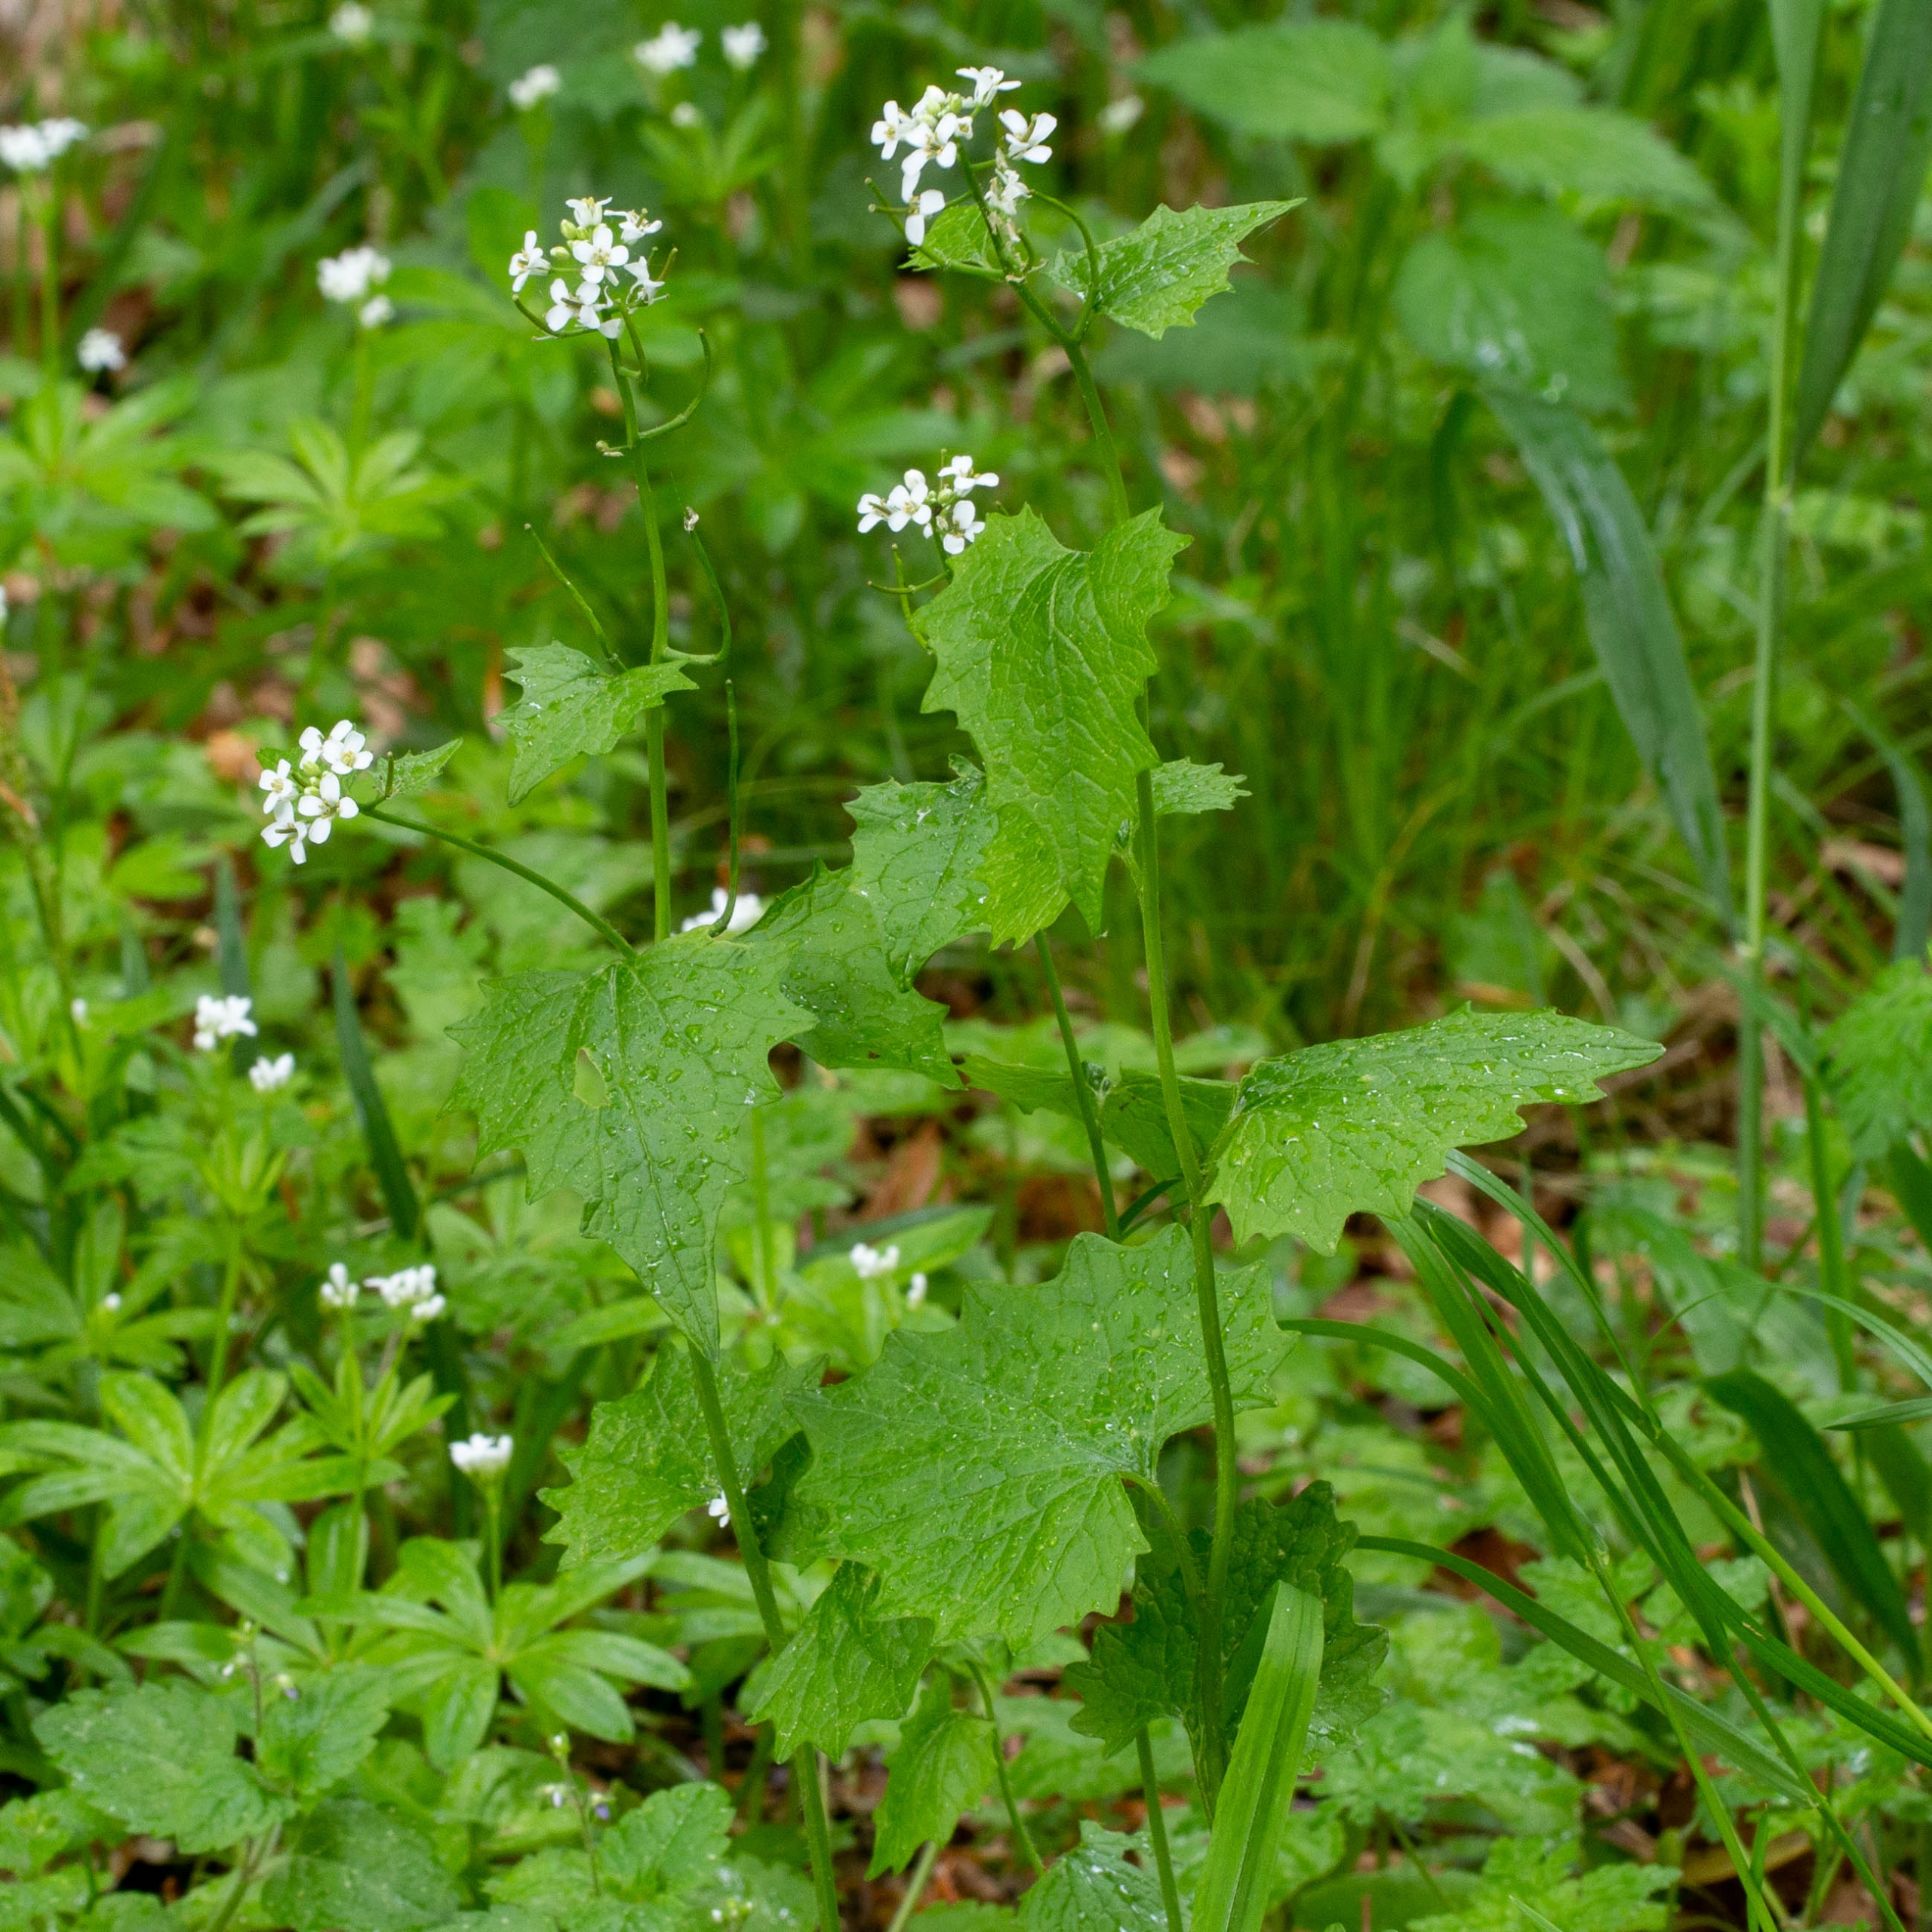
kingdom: Plantae
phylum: Tracheophyta
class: Magnoliopsida
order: Brassicales
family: Brassicaceae
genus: Alliaria
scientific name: Alliaria petiolata
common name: Løgkarse
